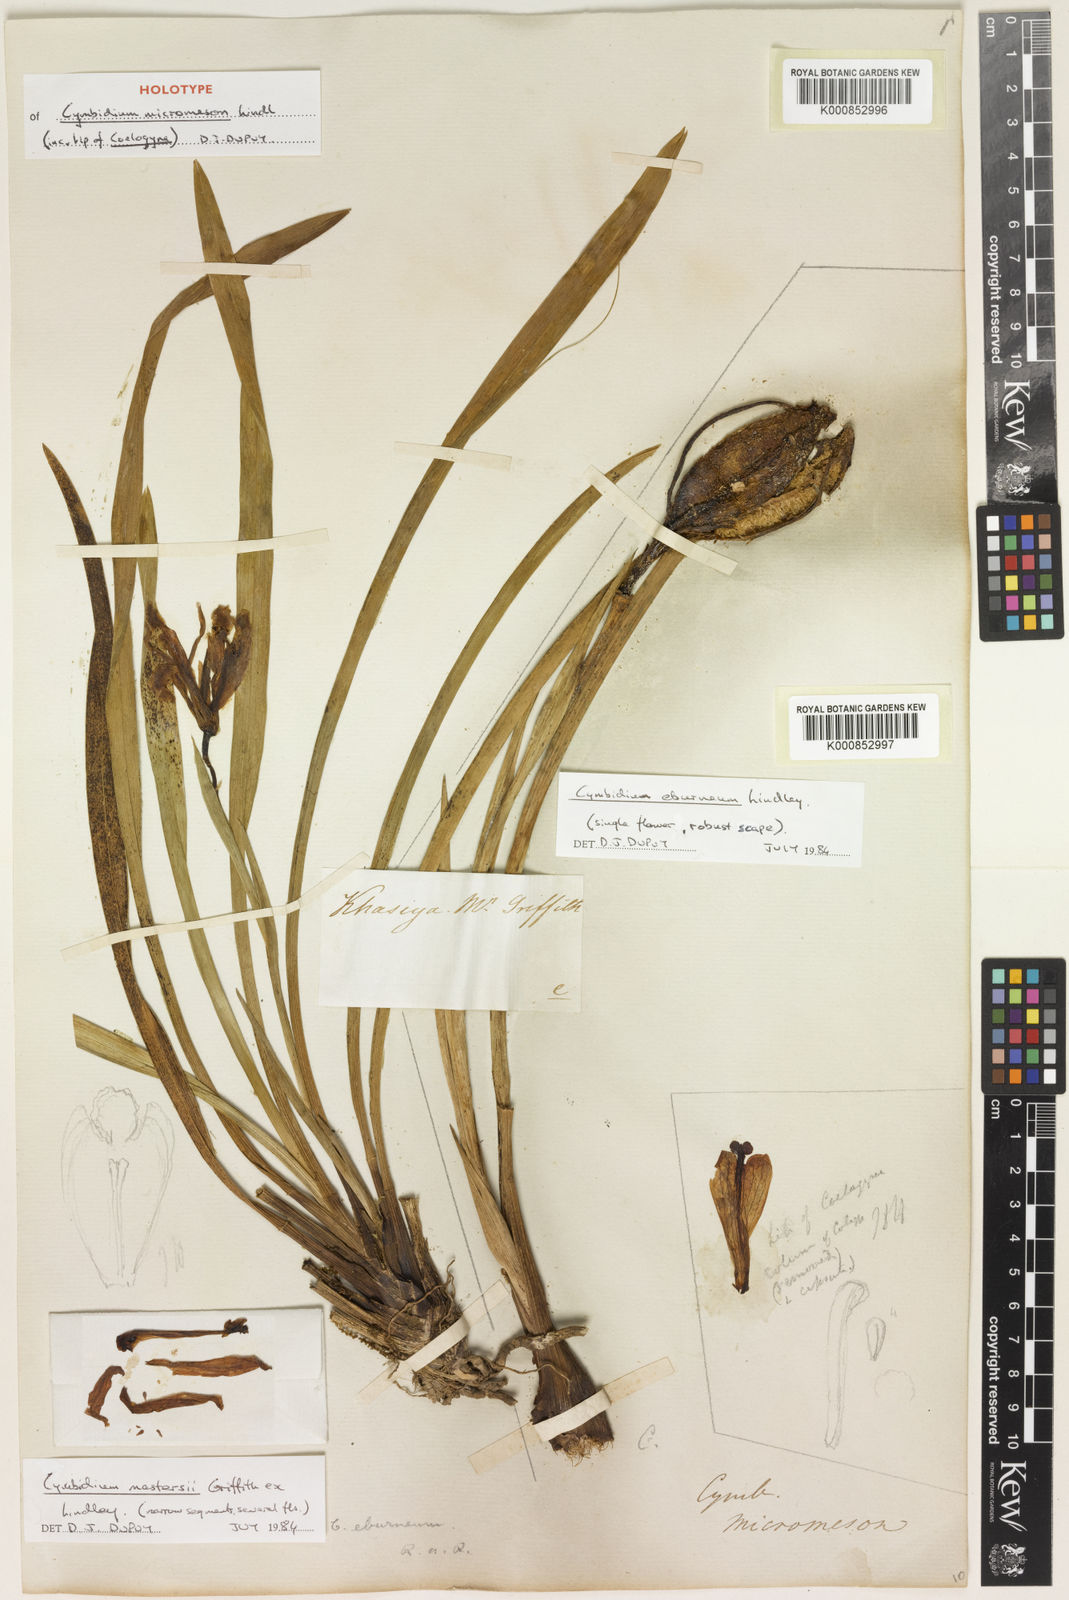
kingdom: Plantae
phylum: Tracheophyta
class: Liliopsida
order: Asparagales
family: Orchidaceae
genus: Cymbidium
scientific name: Cymbidium mastersii
